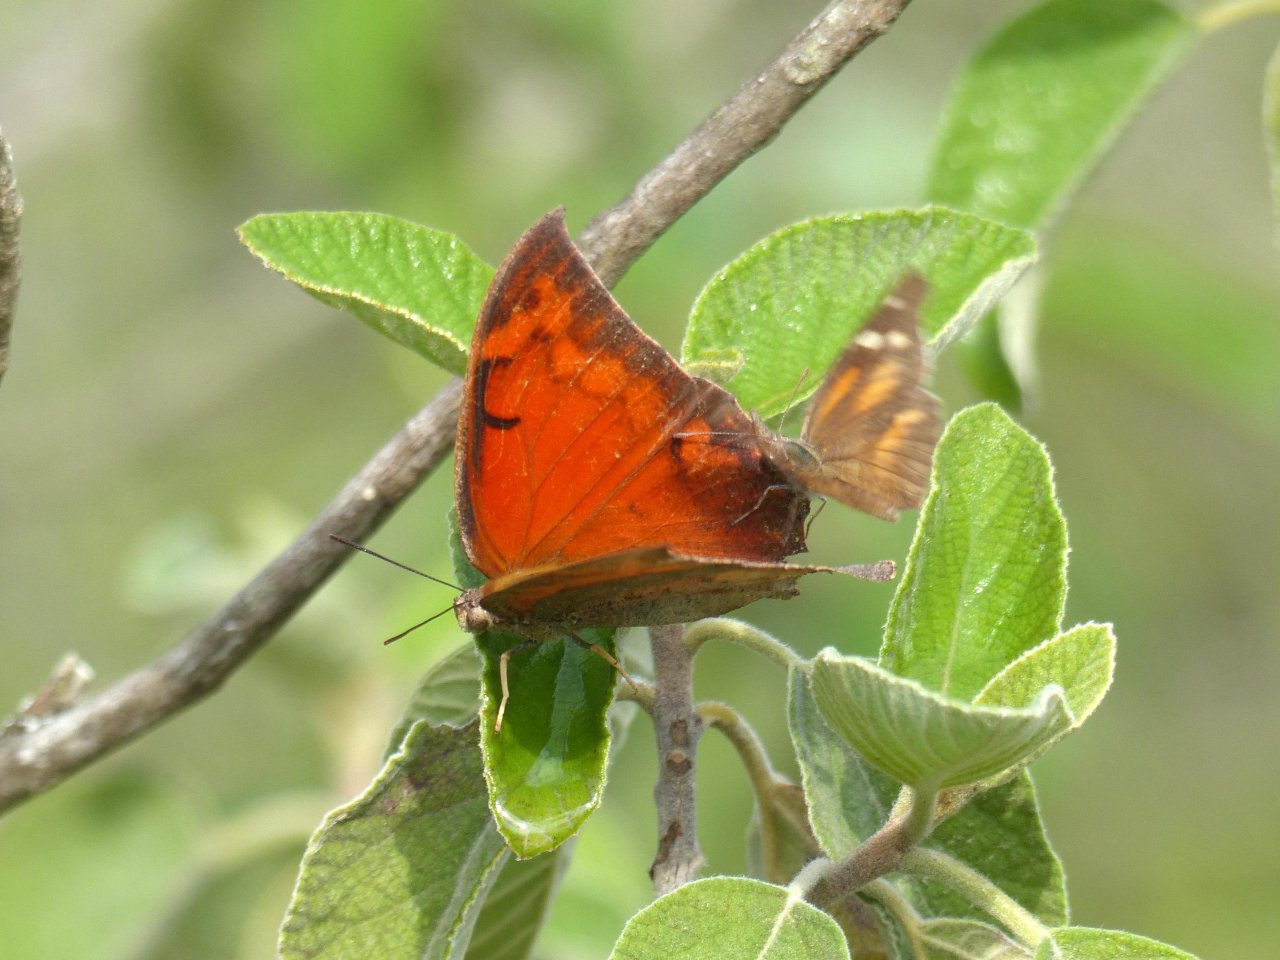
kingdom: Animalia
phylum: Arthropoda
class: Insecta
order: Lepidoptera
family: Nymphalidae
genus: Anaea
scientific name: Anaea aidea
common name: Tropical Leafwing
